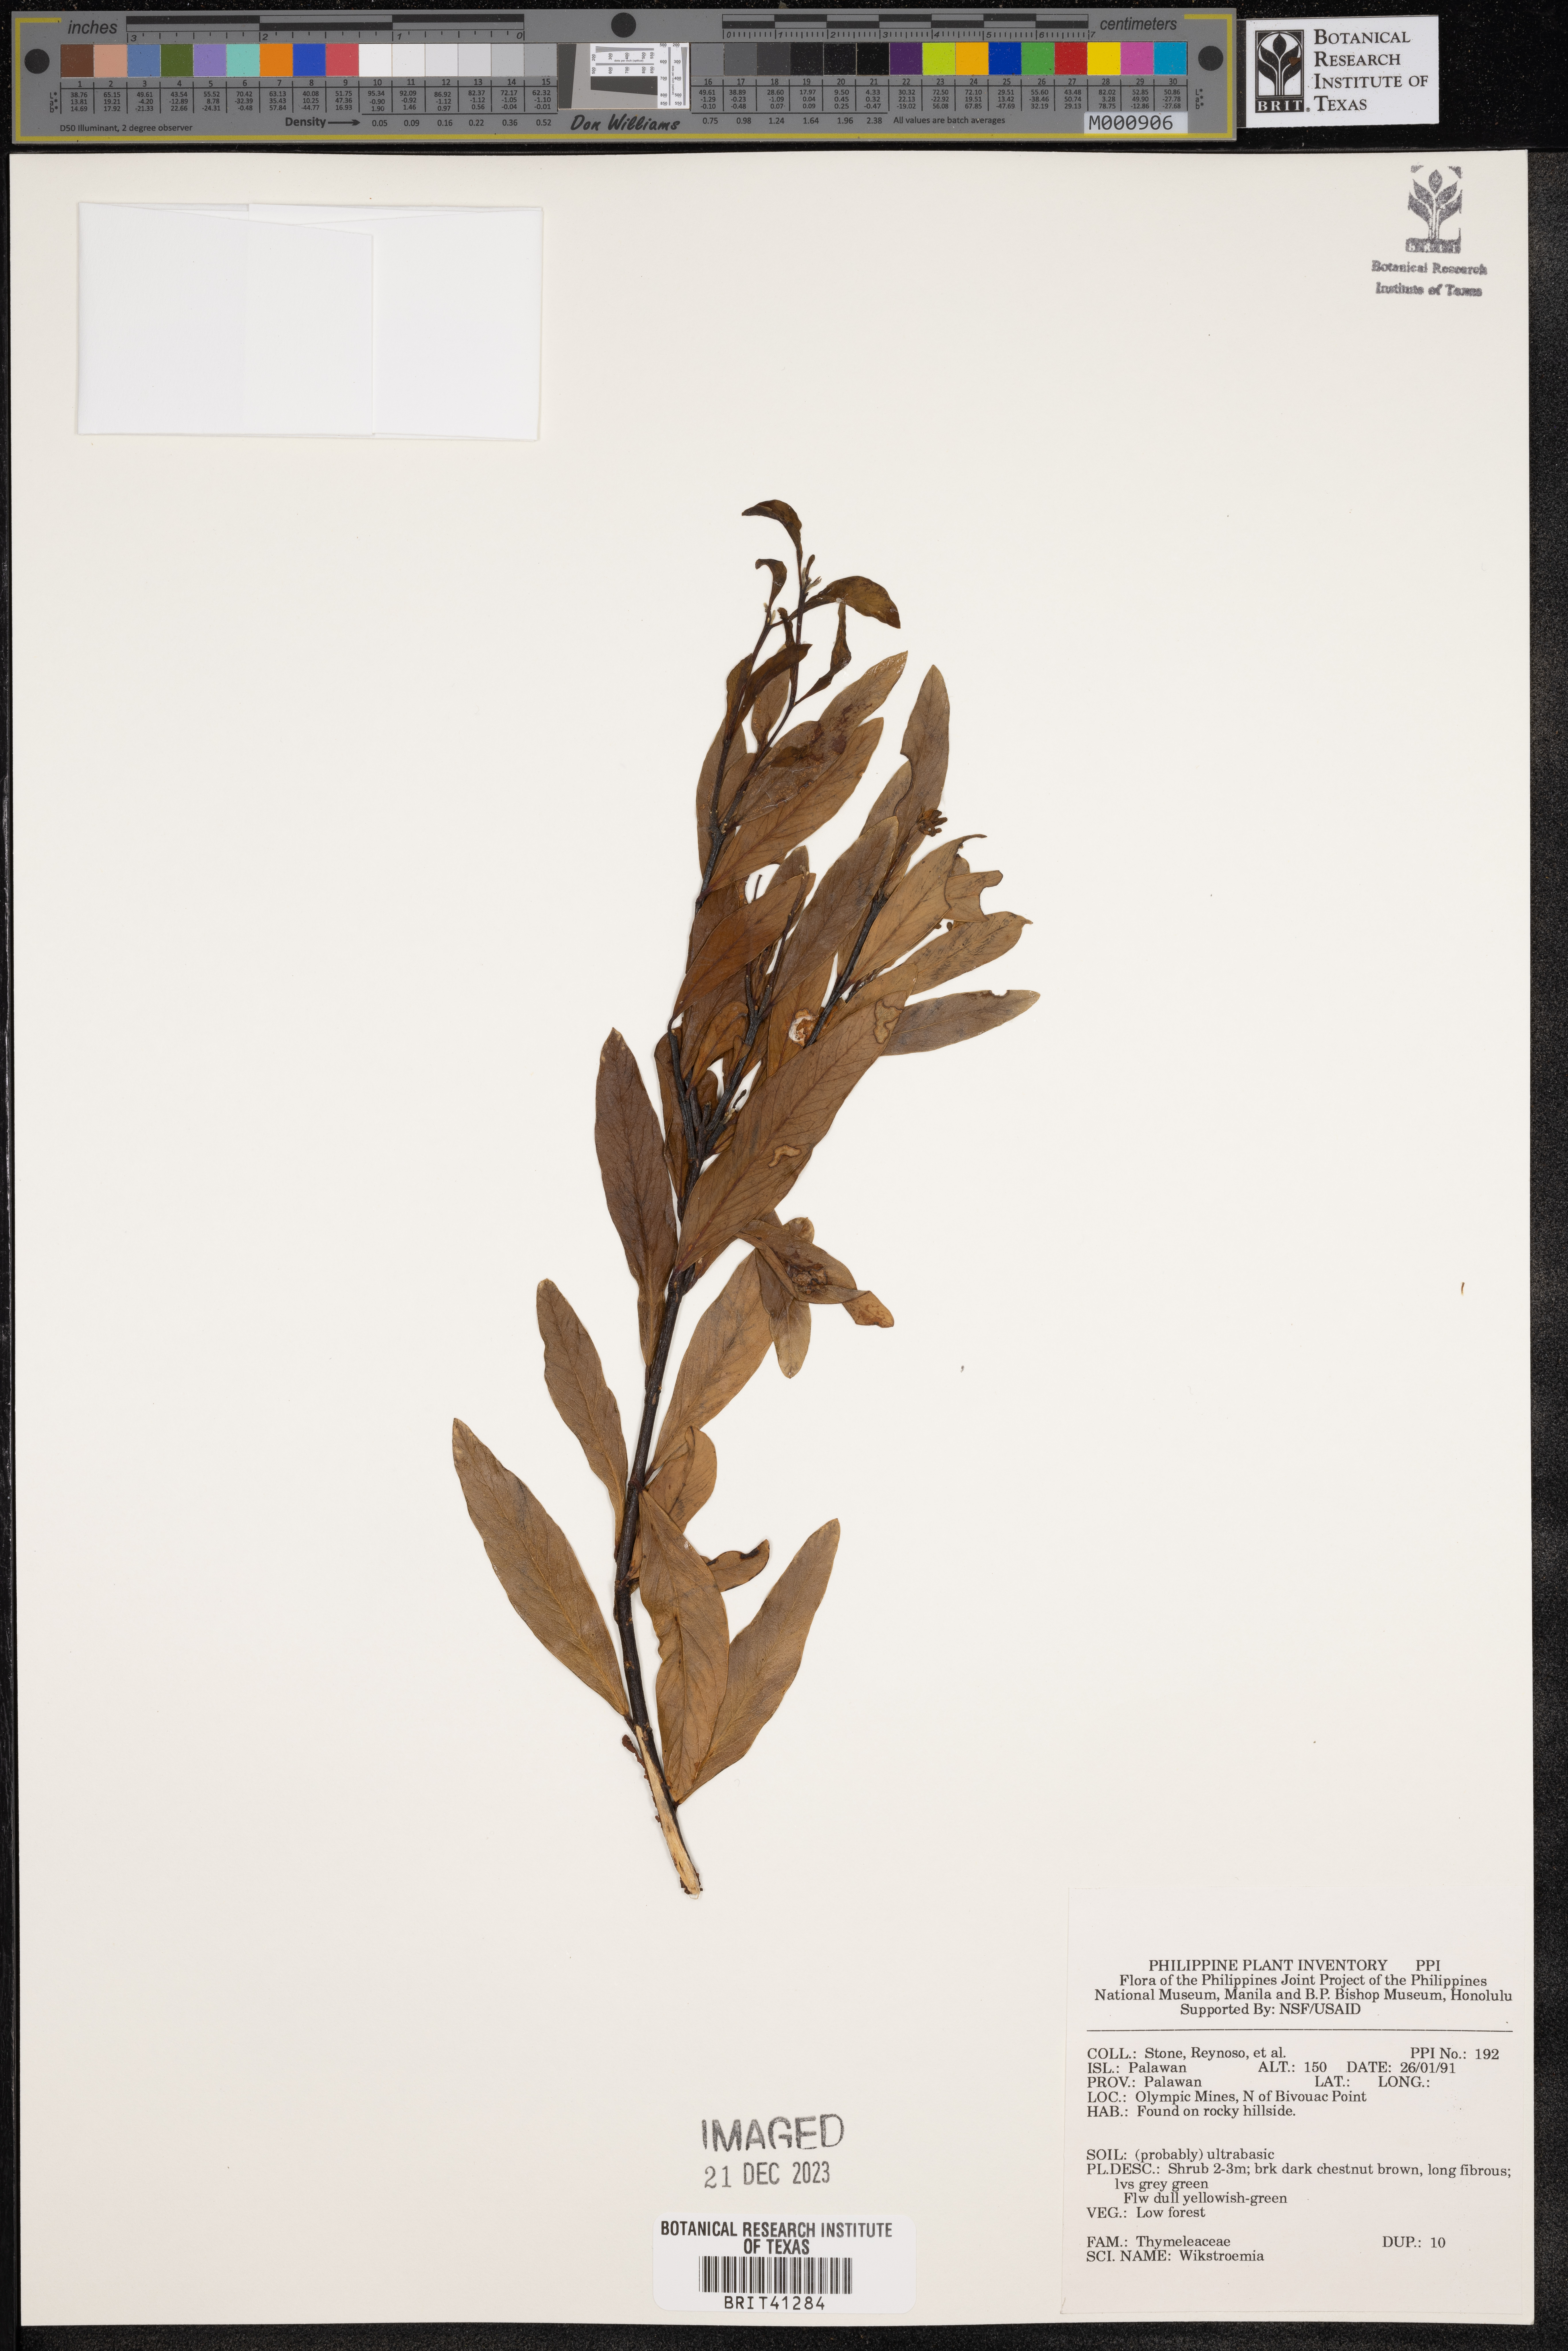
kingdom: Plantae
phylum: Tracheophyta
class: Magnoliopsida
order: Malvales
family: Thymelaeaceae
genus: Wikstroemia
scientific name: Wikstroemia
